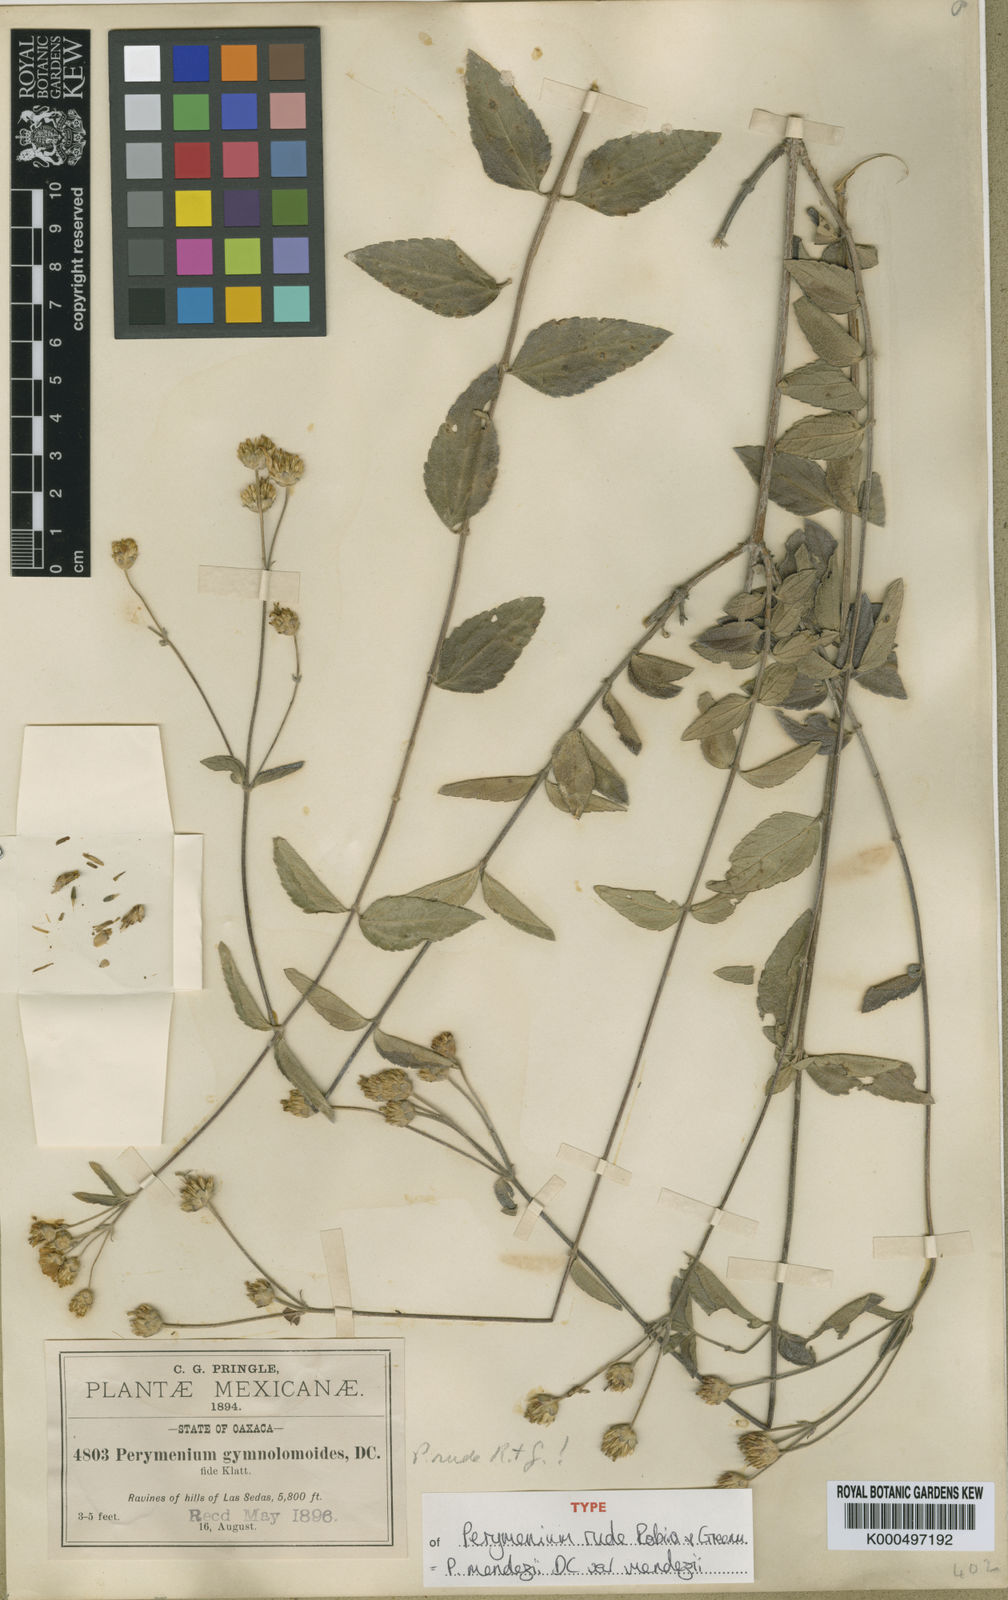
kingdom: Plantae
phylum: Tracheophyta
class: Magnoliopsida
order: Asterales
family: Asteraceae
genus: Perymenium
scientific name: Perymenium mendezii
